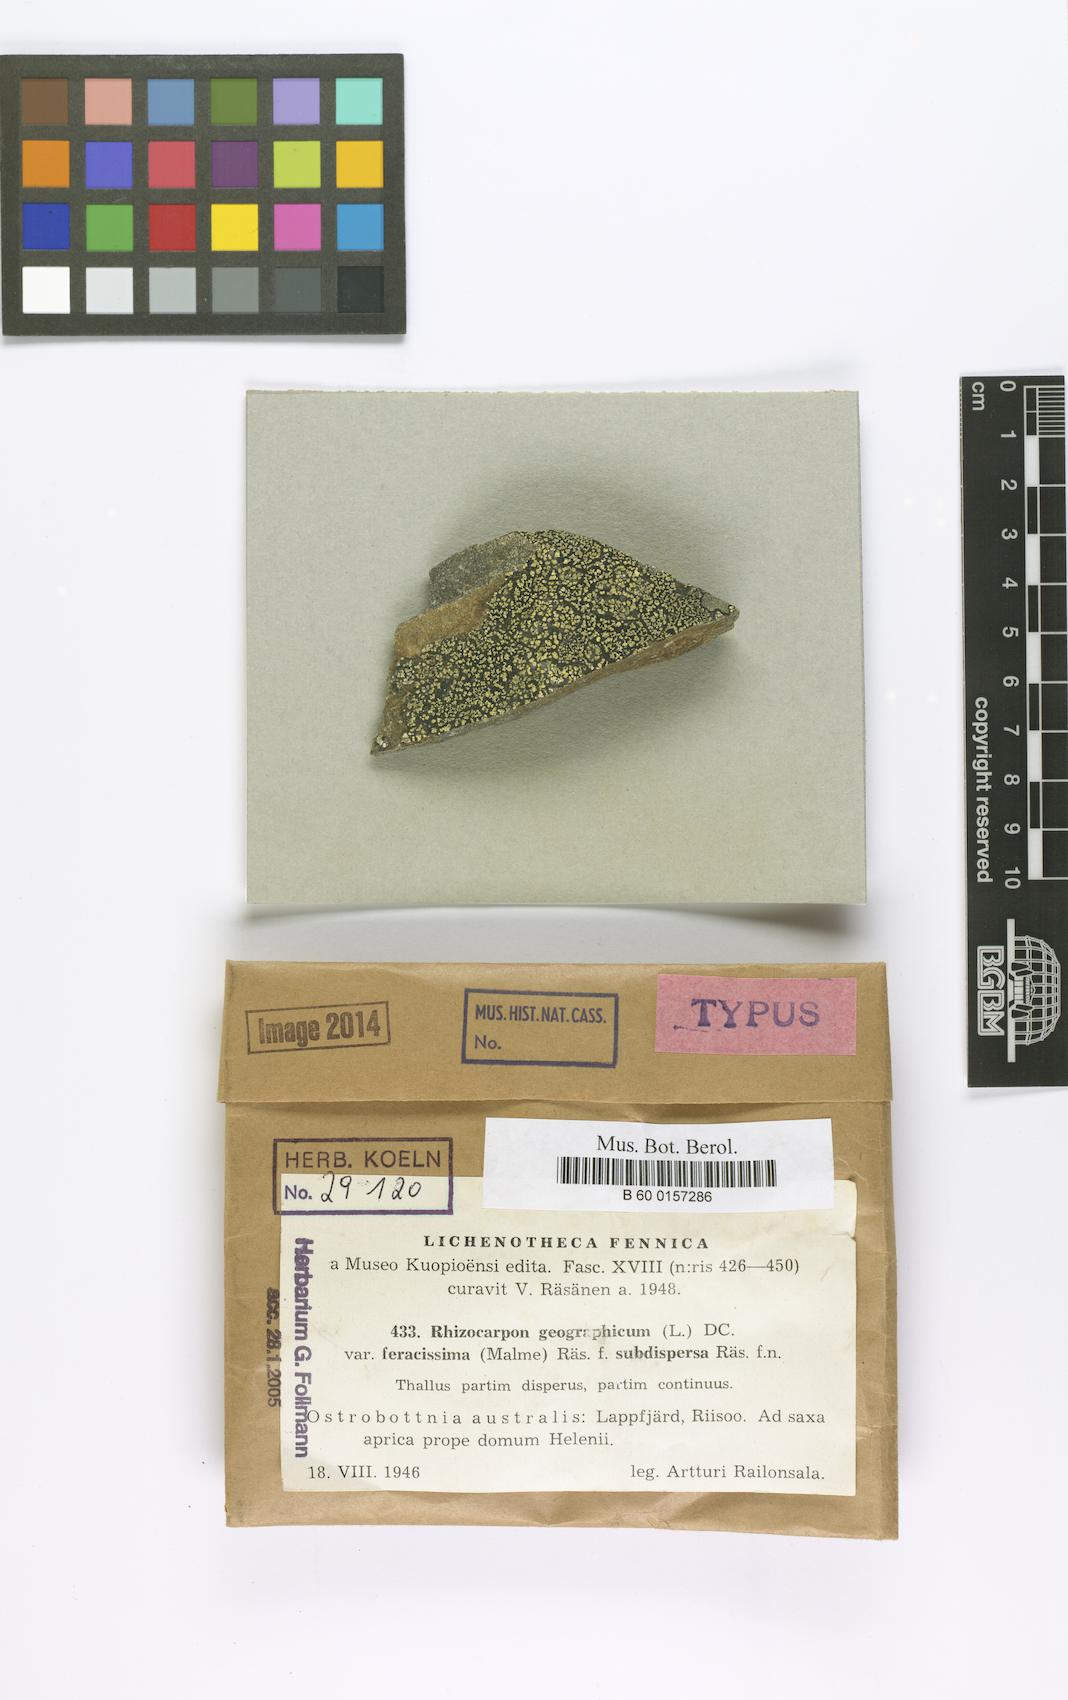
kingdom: Fungi
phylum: Ascomycota
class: Lecanoromycetes
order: Rhizocarpales
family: Rhizocarpaceae
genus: Rhizocarpon
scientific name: Rhizocarpon geographicum
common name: Yellow map lichen
